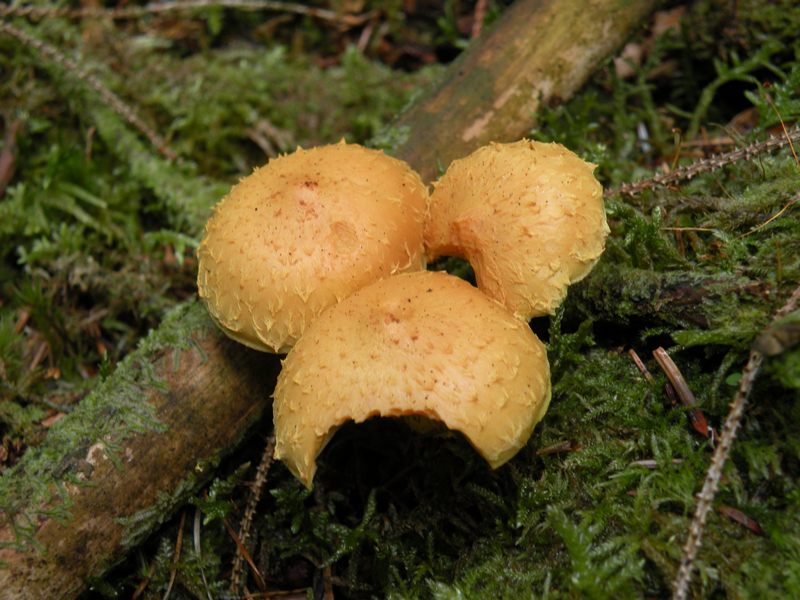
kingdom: Fungi
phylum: Basidiomycota
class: Agaricomycetes
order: Agaricales
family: Strophariaceae
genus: Pholiota
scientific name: Pholiota flammans
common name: flamme-skælhat
